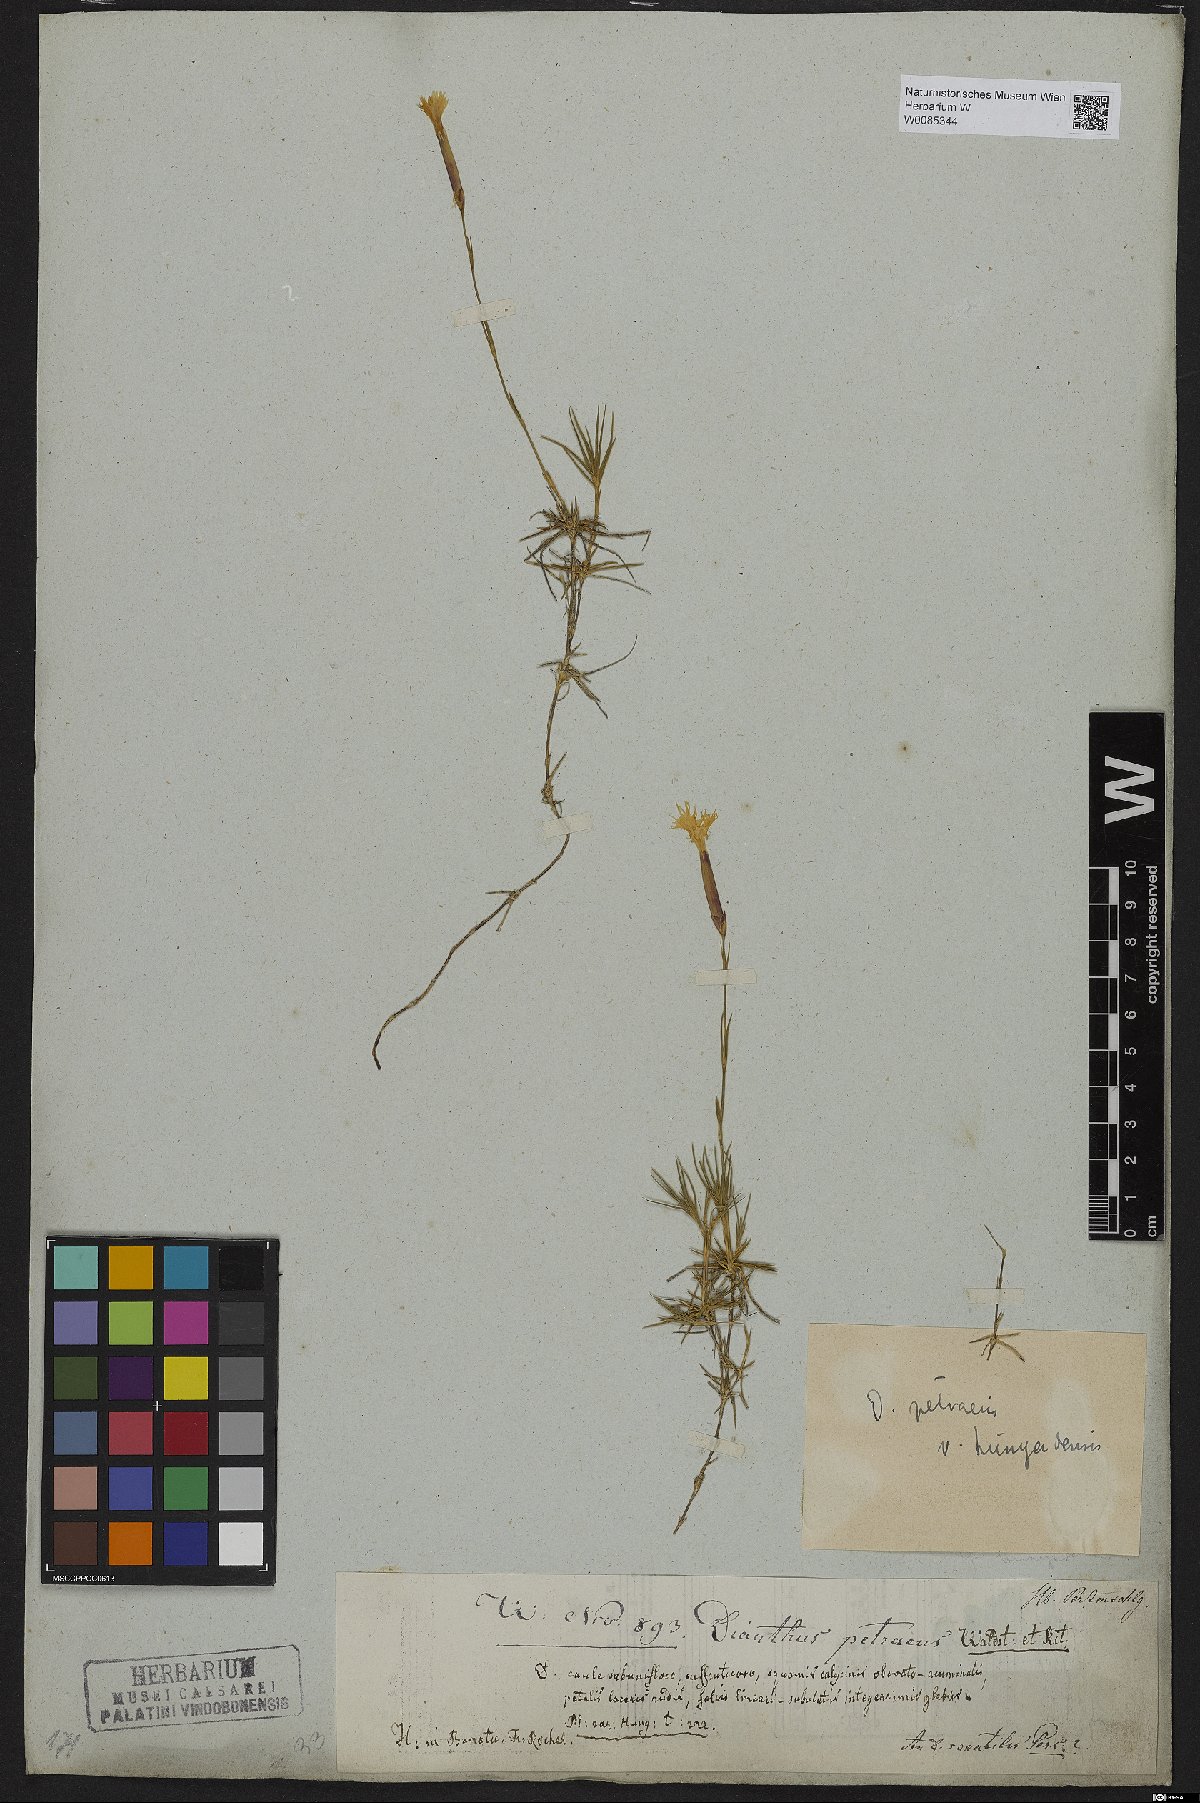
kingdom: Plantae
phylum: Tracheophyta
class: Magnoliopsida
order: Caryophyllales
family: Caryophyllaceae
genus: Dianthus
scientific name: Dianthus petraeus
